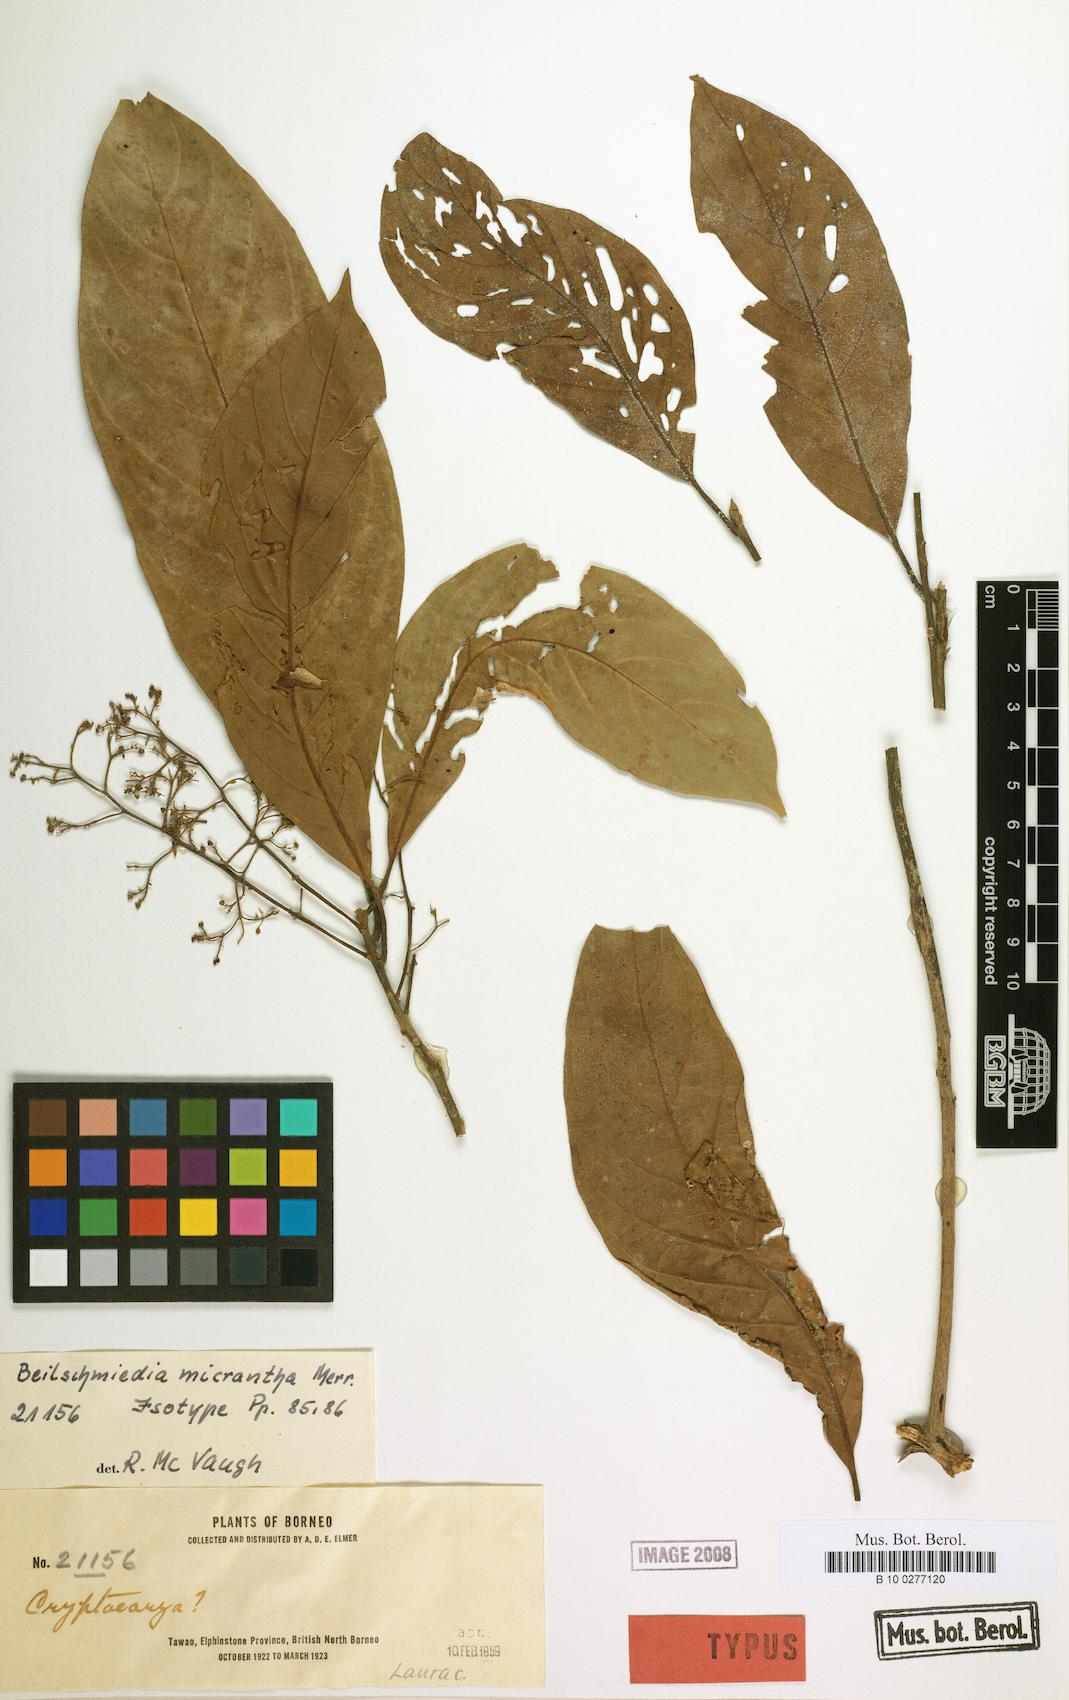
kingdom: Plantae
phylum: Tracheophyta
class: Magnoliopsida
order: Laurales
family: Lauraceae
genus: Beilschmiedia
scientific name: Beilschmiedia micrantha
